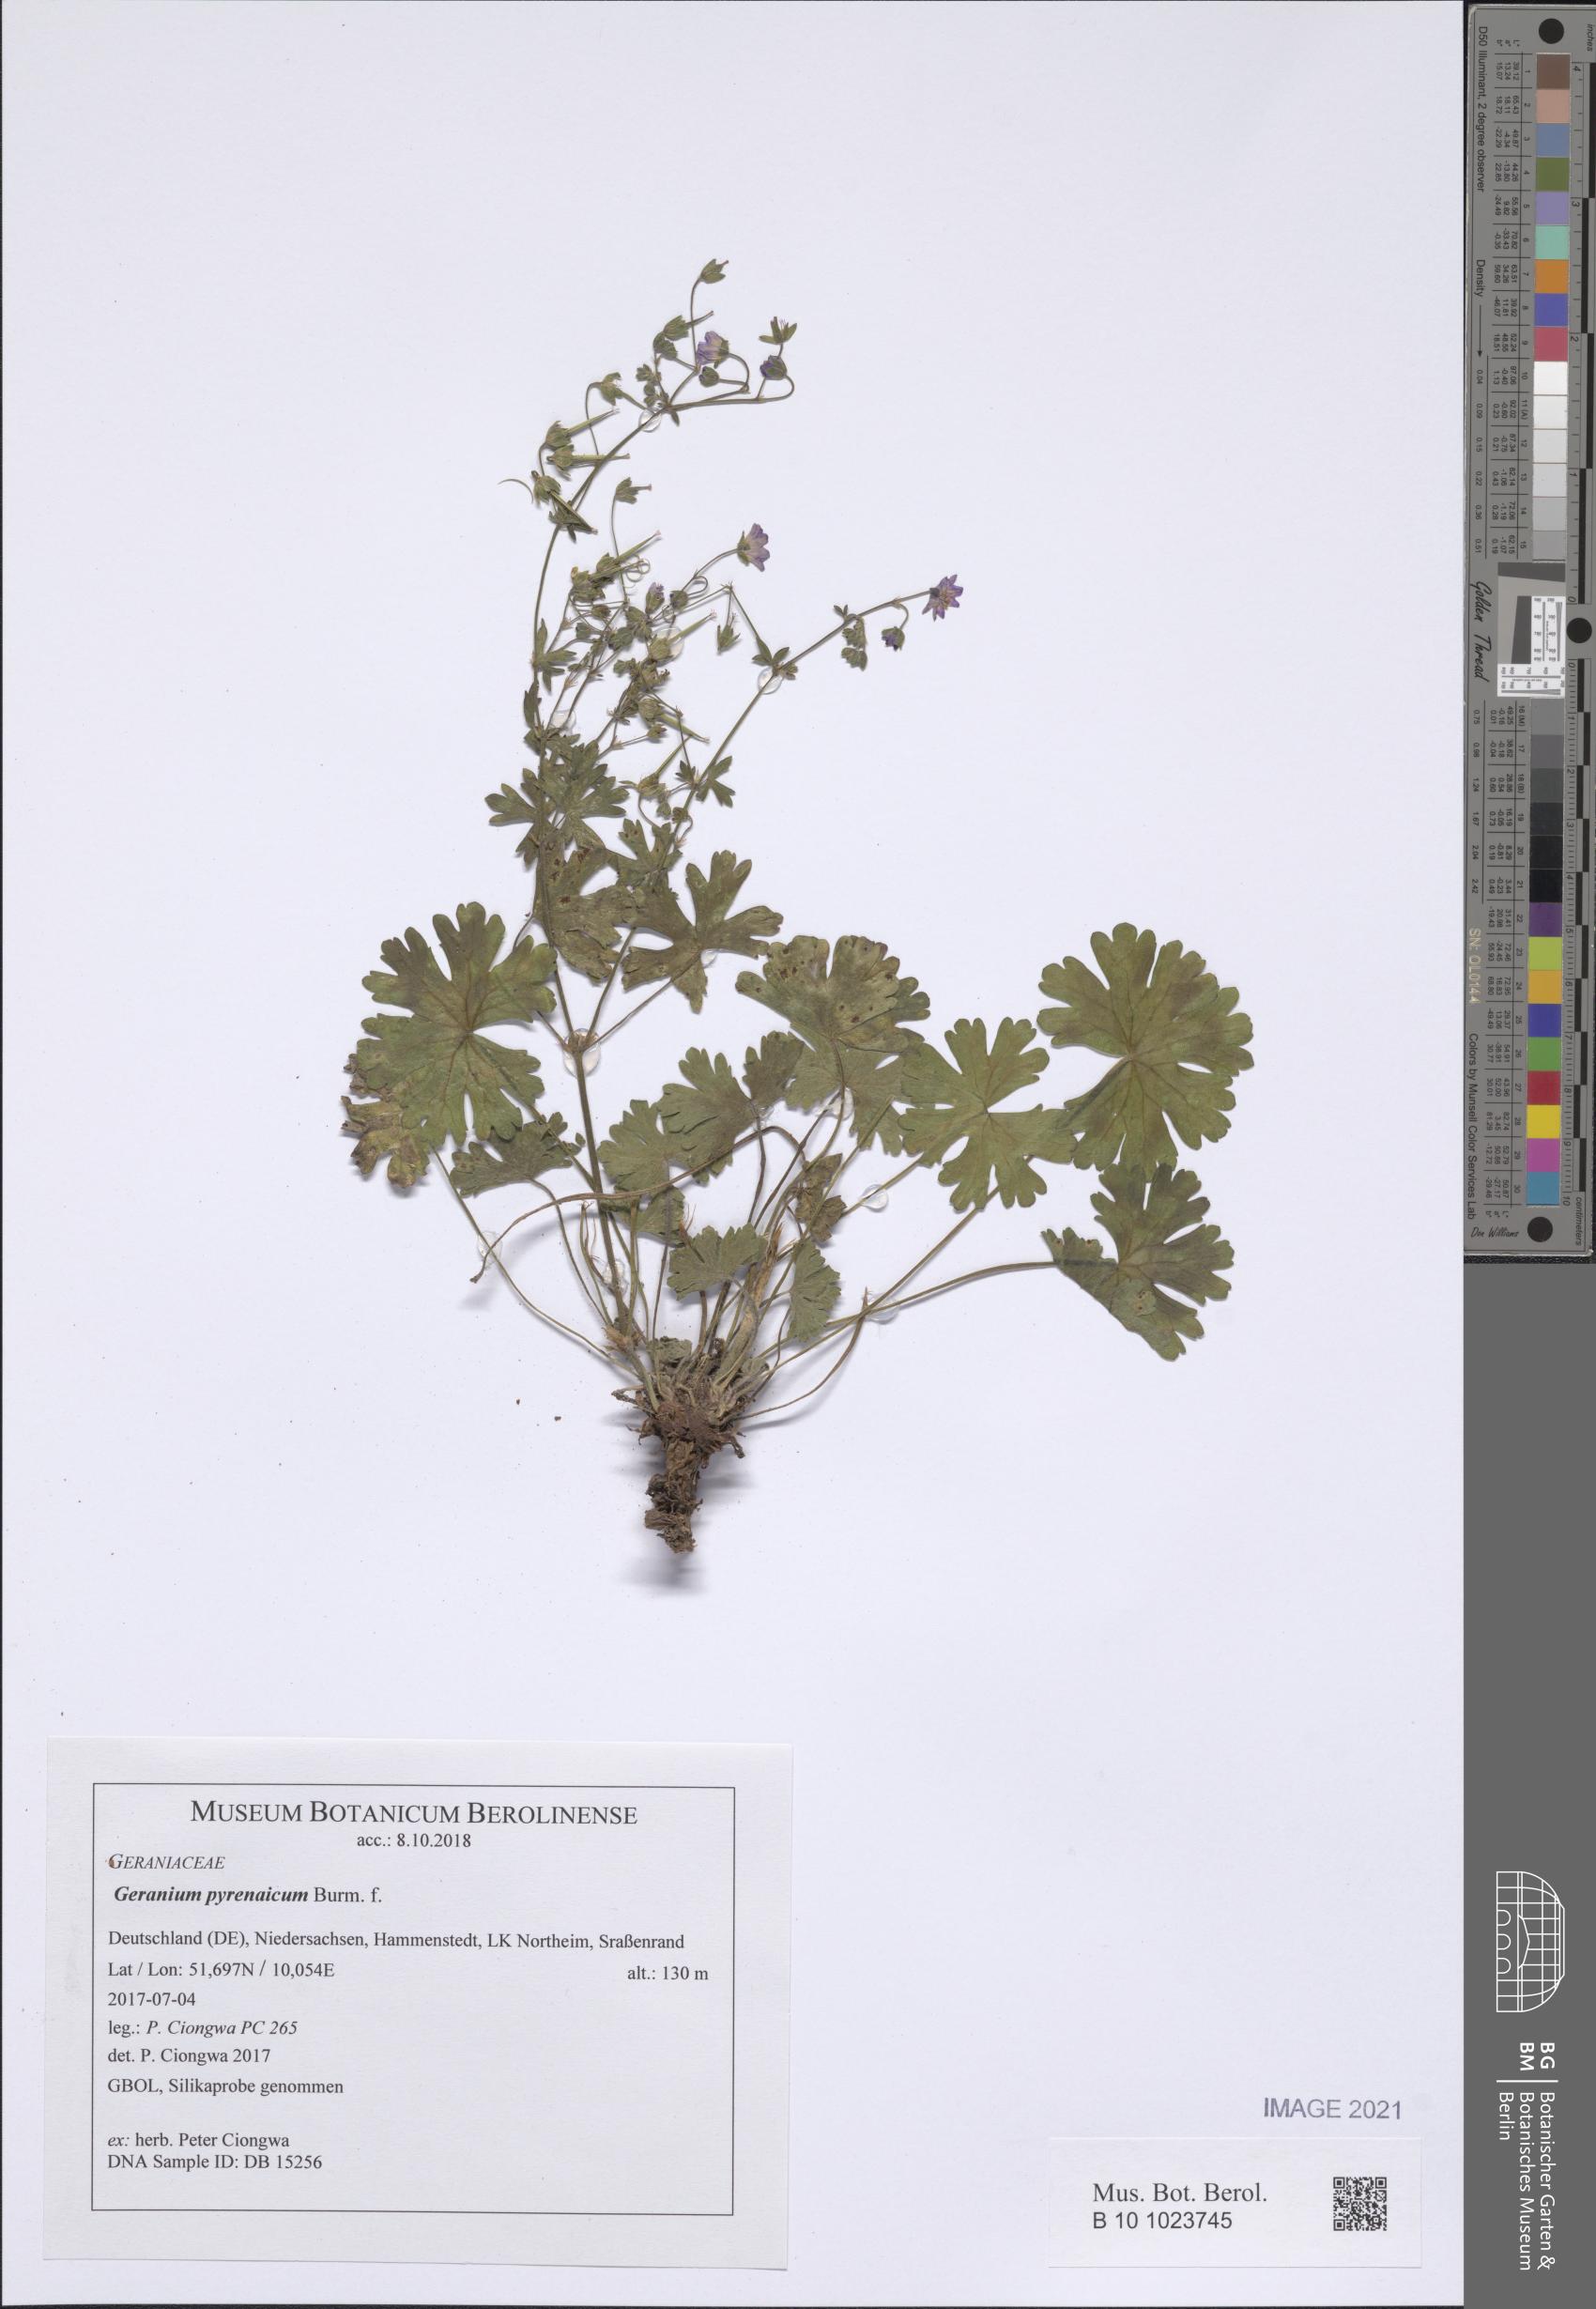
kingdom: Plantae
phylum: Tracheophyta
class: Magnoliopsida
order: Geraniales
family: Geraniaceae
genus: Geranium
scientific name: Geranium pyrenaicum
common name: Hedgerow crane's-bill
